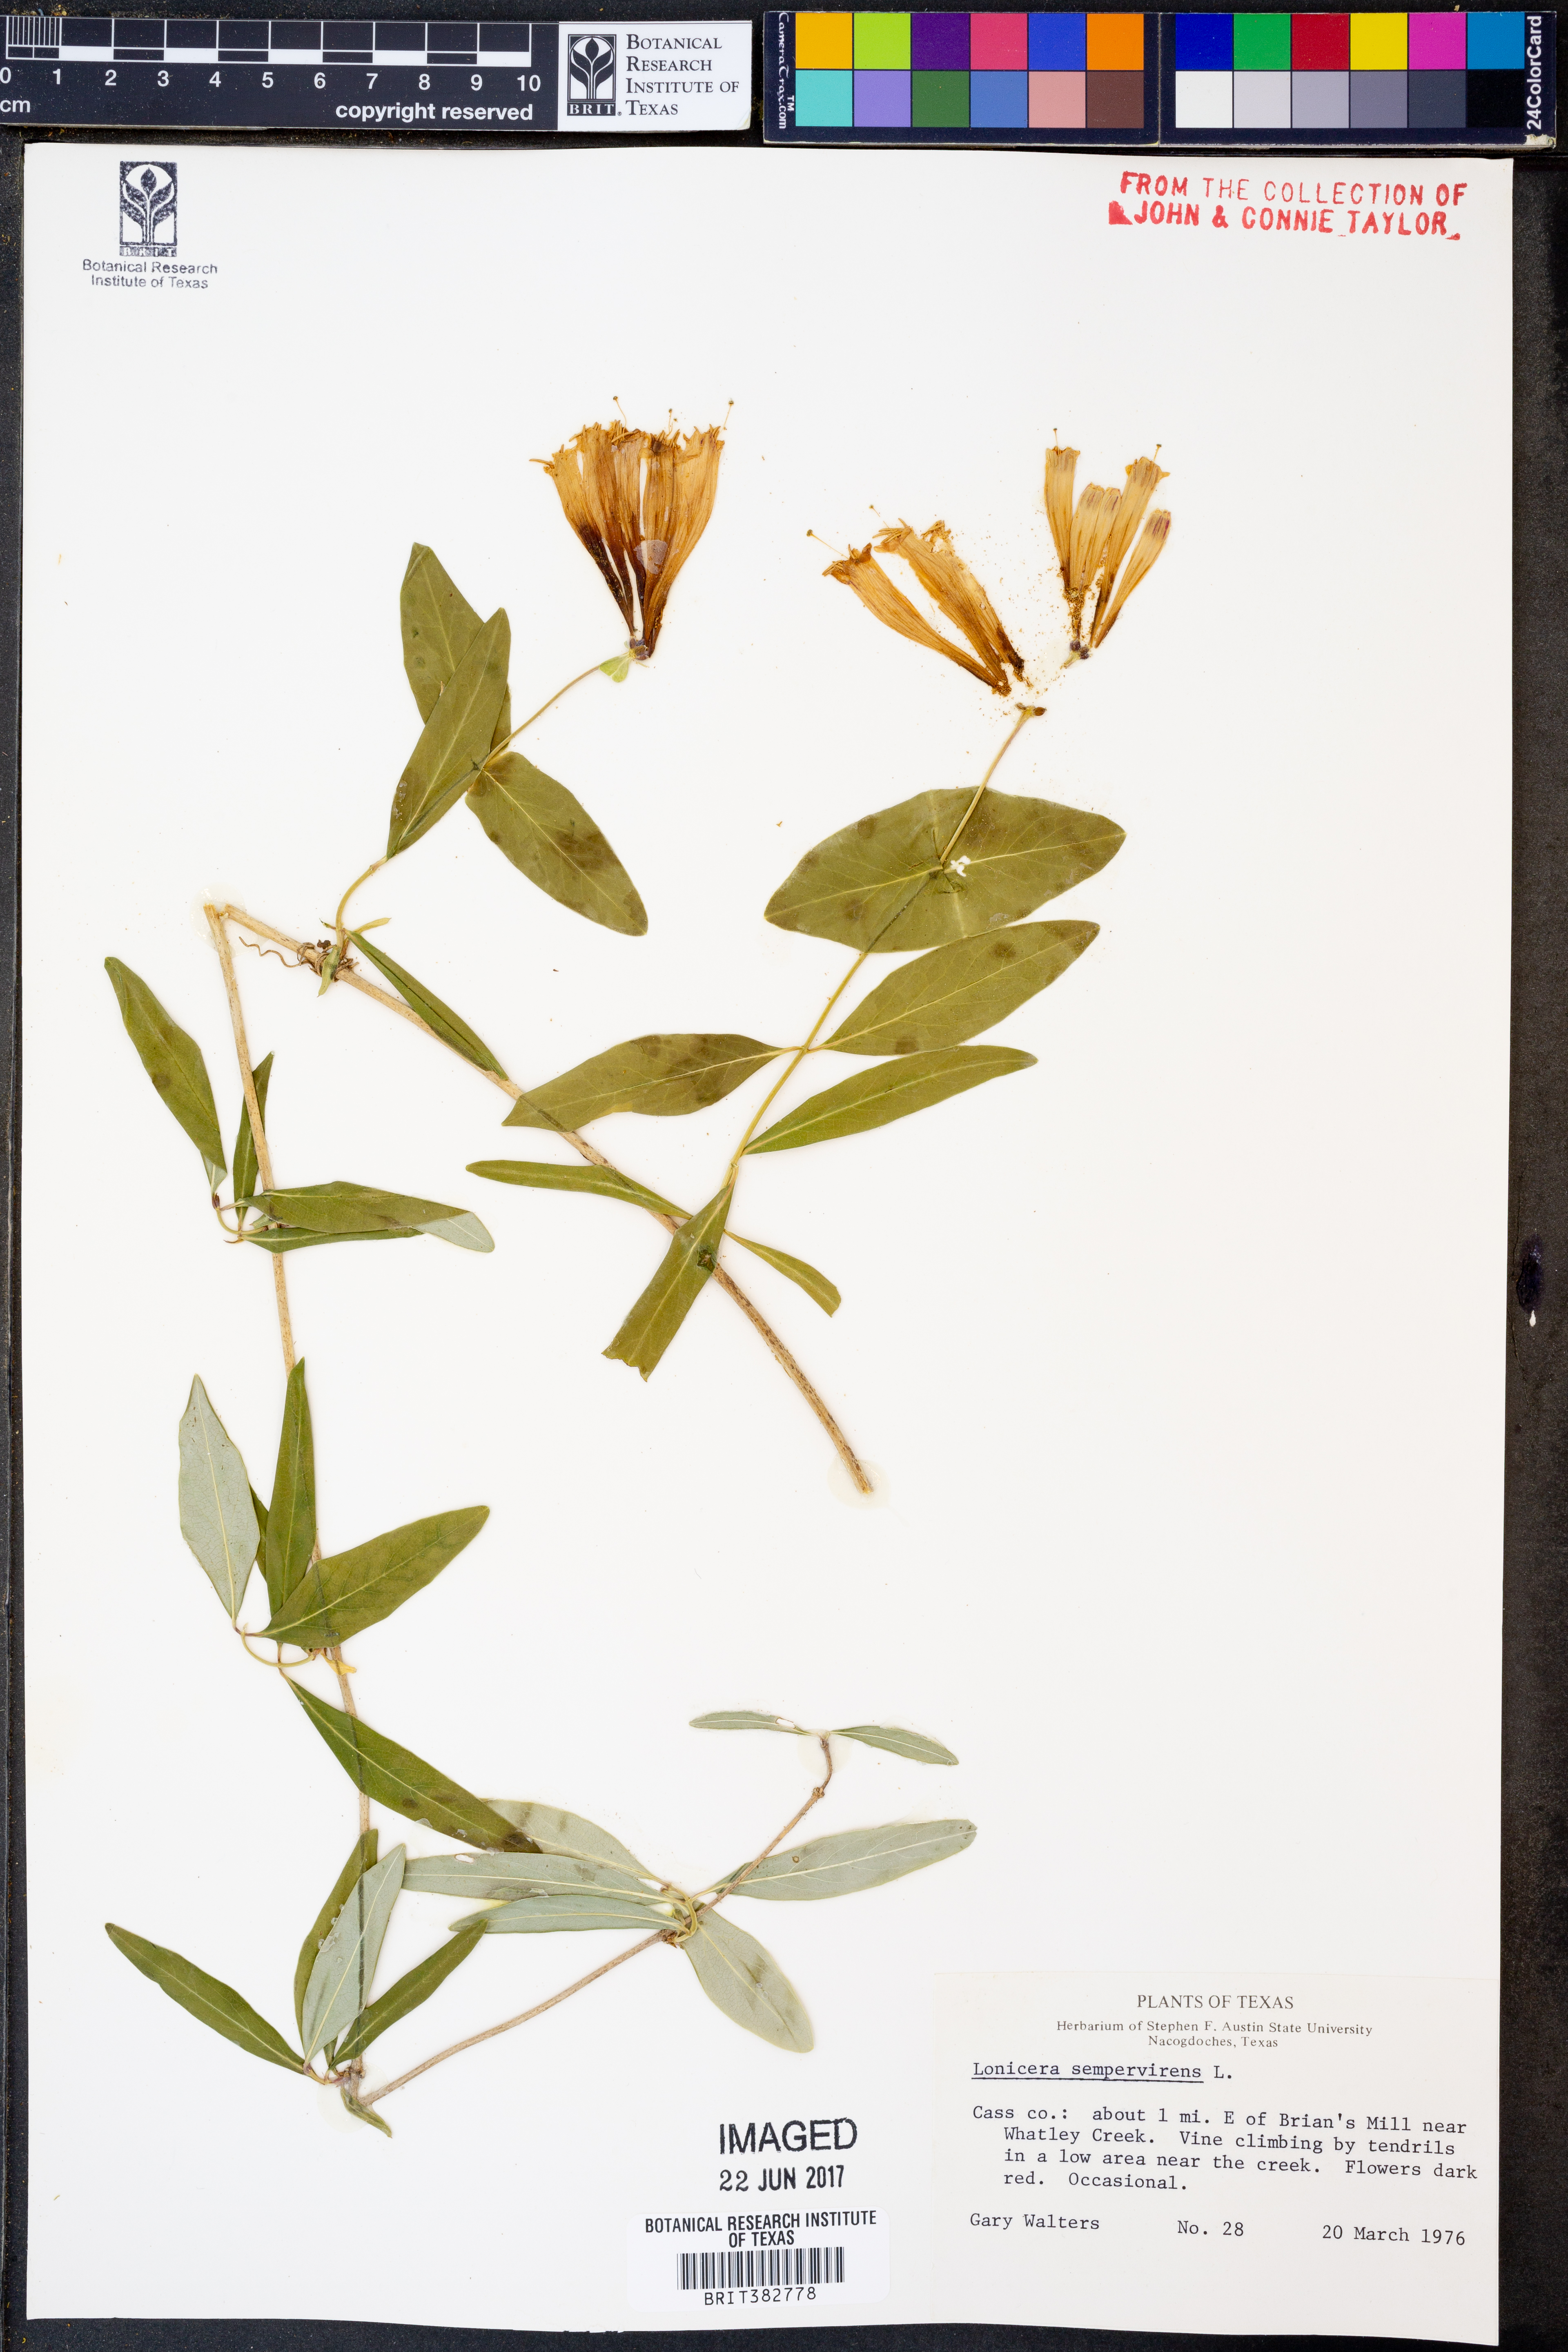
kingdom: Plantae
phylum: Tracheophyta
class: Magnoliopsida
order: Dipsacales
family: Caprifoliaceae
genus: Lonicera
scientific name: Lonicera sempervirens
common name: Coral honeysuckle
